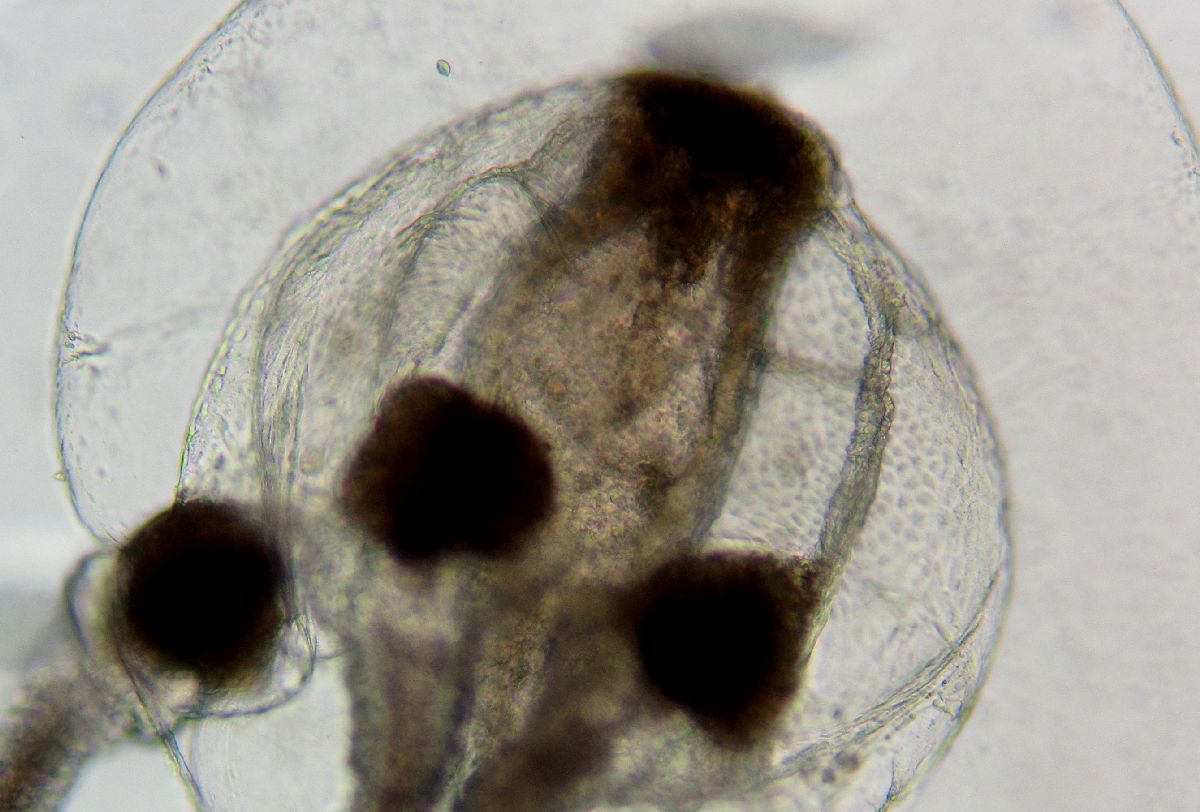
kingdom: Animalia
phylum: Cnidaria
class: Hydrozoa
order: Anthoathecata
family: Boreohydridae
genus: Plotocnide
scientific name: Plotocnide borealis
